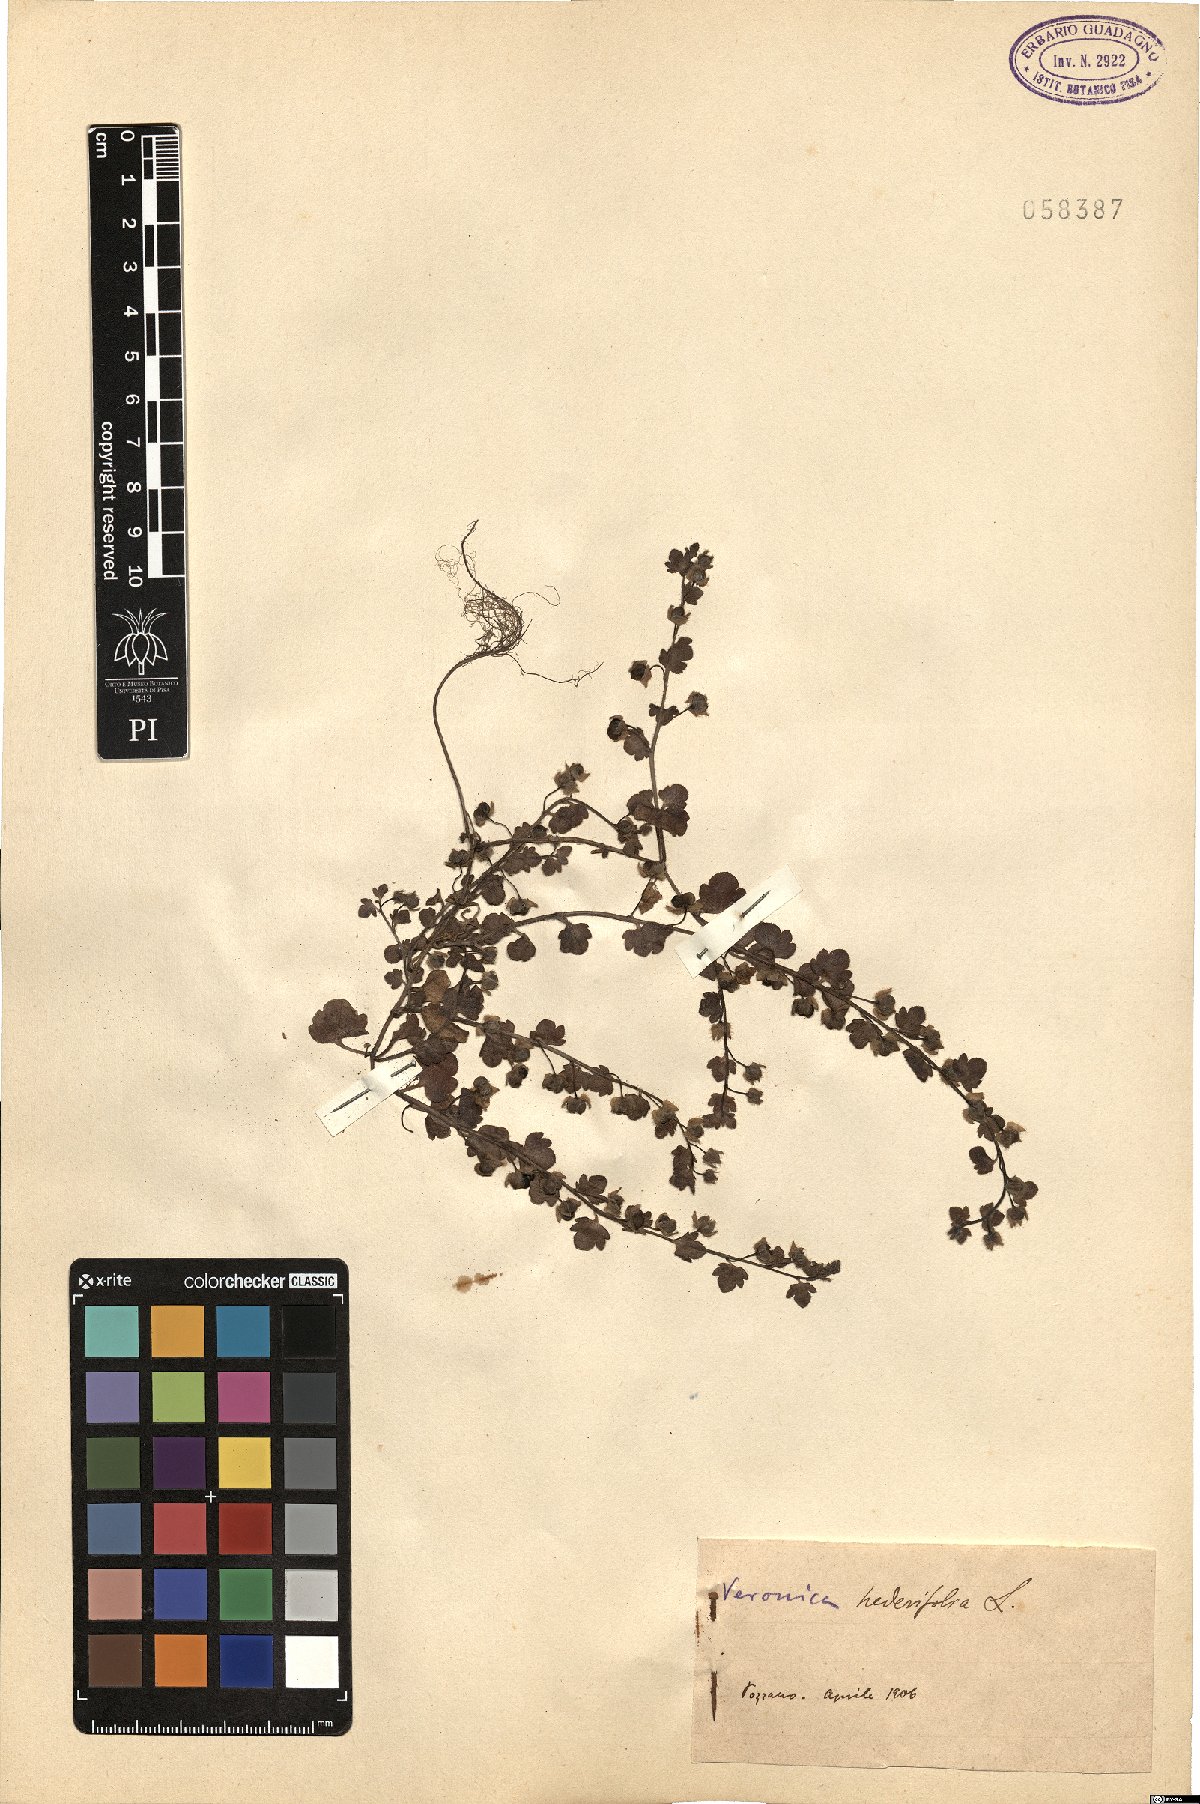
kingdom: Plantae
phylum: Tracheophyta
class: Magnoliopsida
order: Lamiales
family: Plantaginaceae
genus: Veronica
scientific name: Veronica hederifolia
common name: Ivy-leaved speedwell
